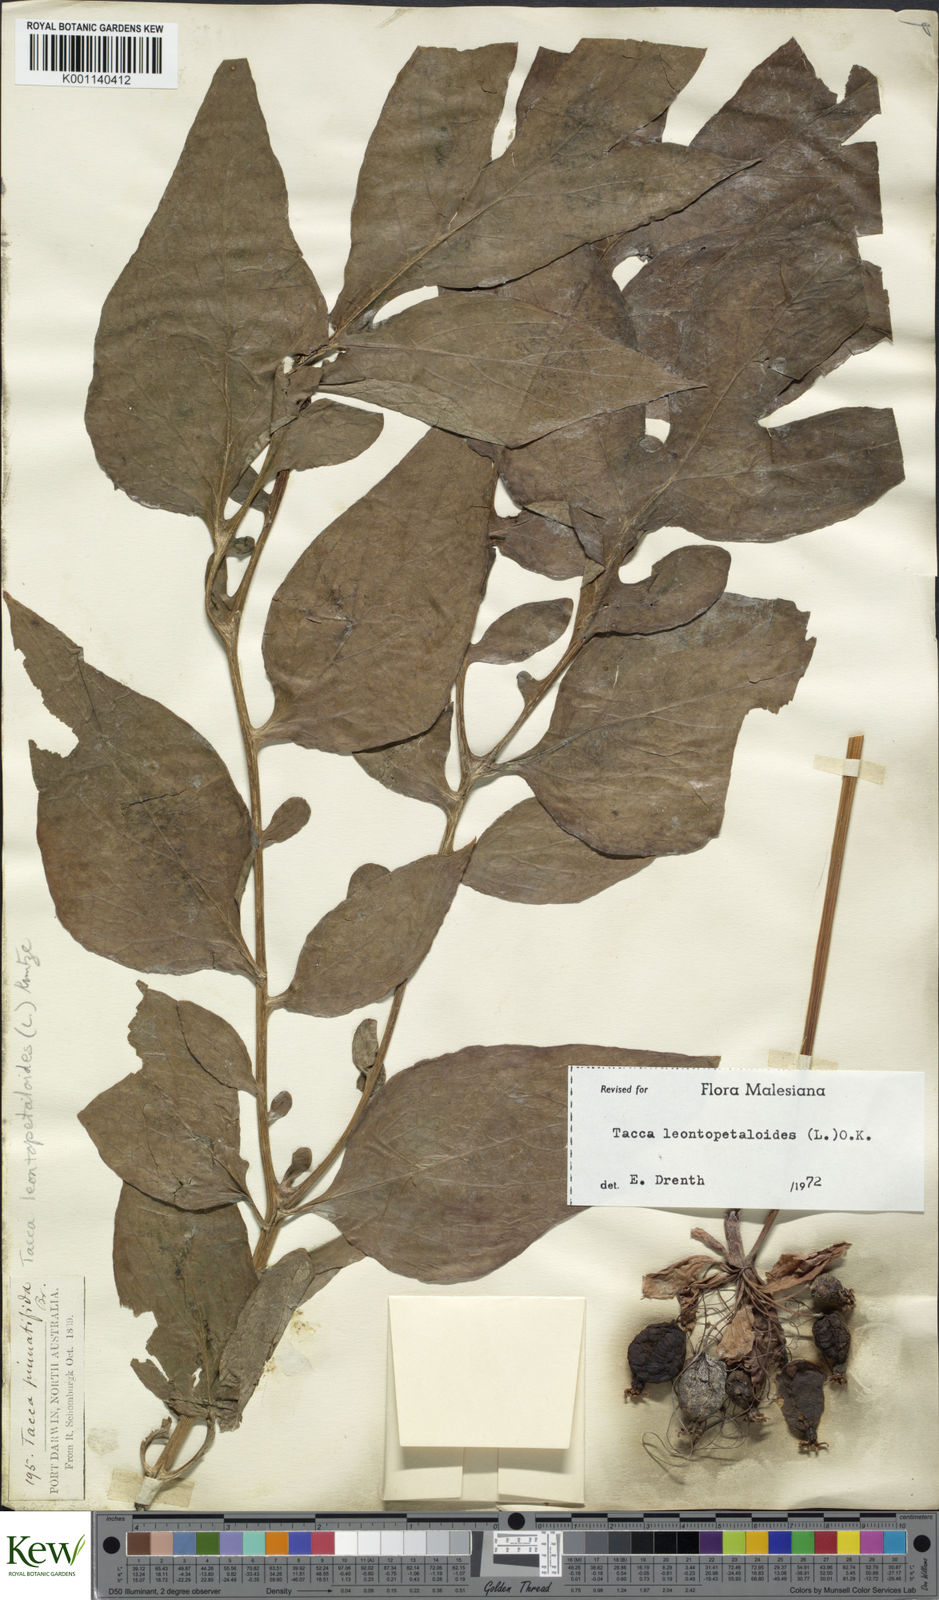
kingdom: Plantae
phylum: Tracheophyta
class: Liliopsida
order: Dioscoreales
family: Dioscoreaceae
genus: Tacca
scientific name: Tacca leontopetaloides
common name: Arrowroot
